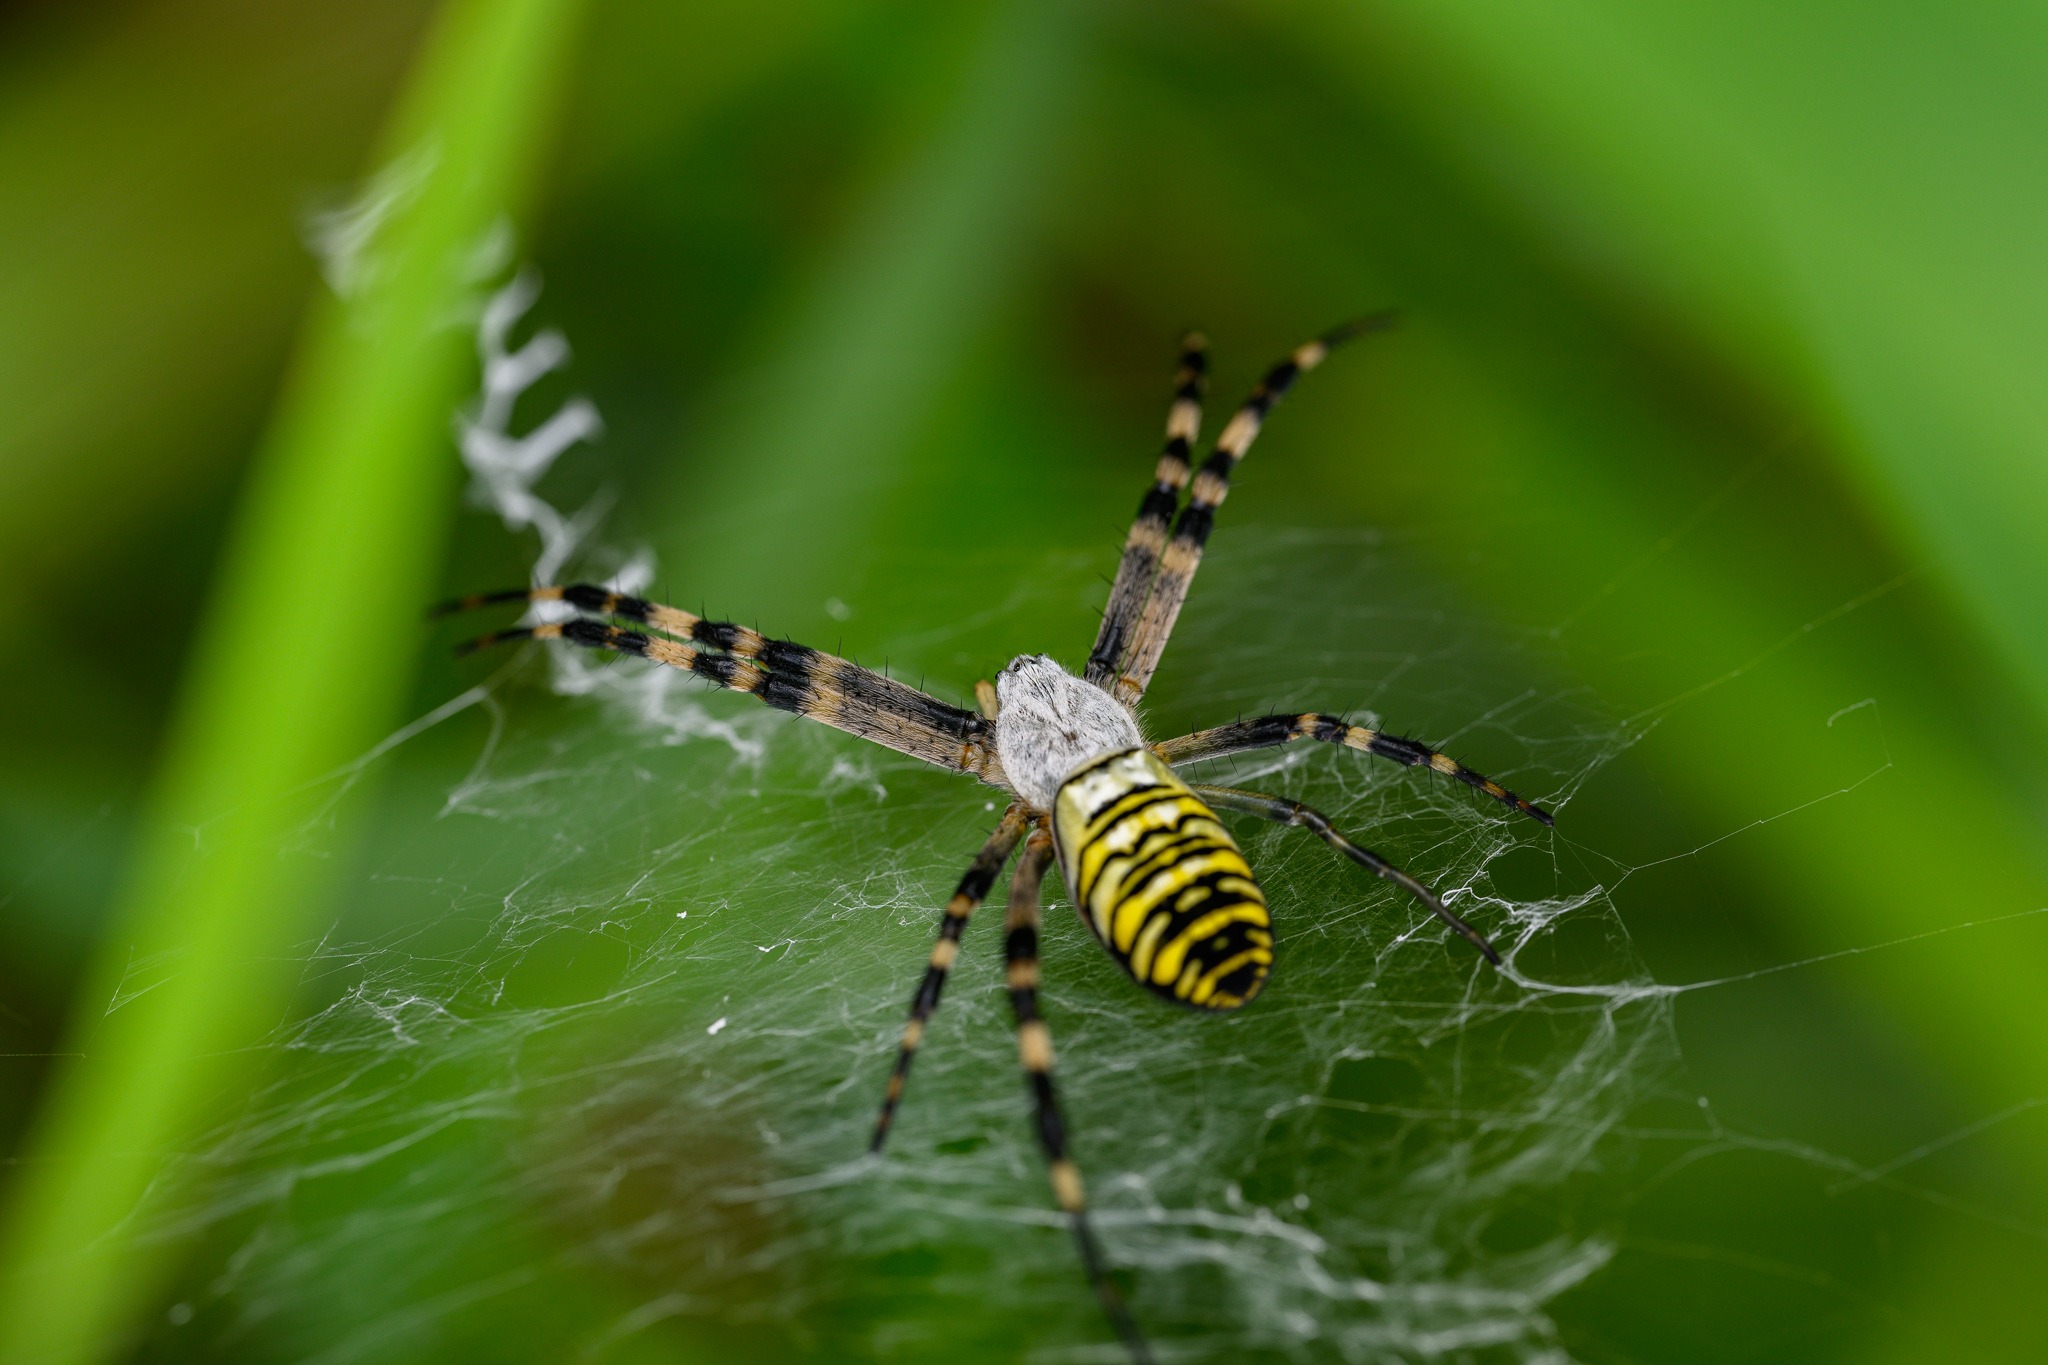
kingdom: Animalia
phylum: Arthropoda
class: Arachnida
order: Araneae
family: Araneidae
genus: Argiope
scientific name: Argiope bruennichi
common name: Hvepseedderkop
